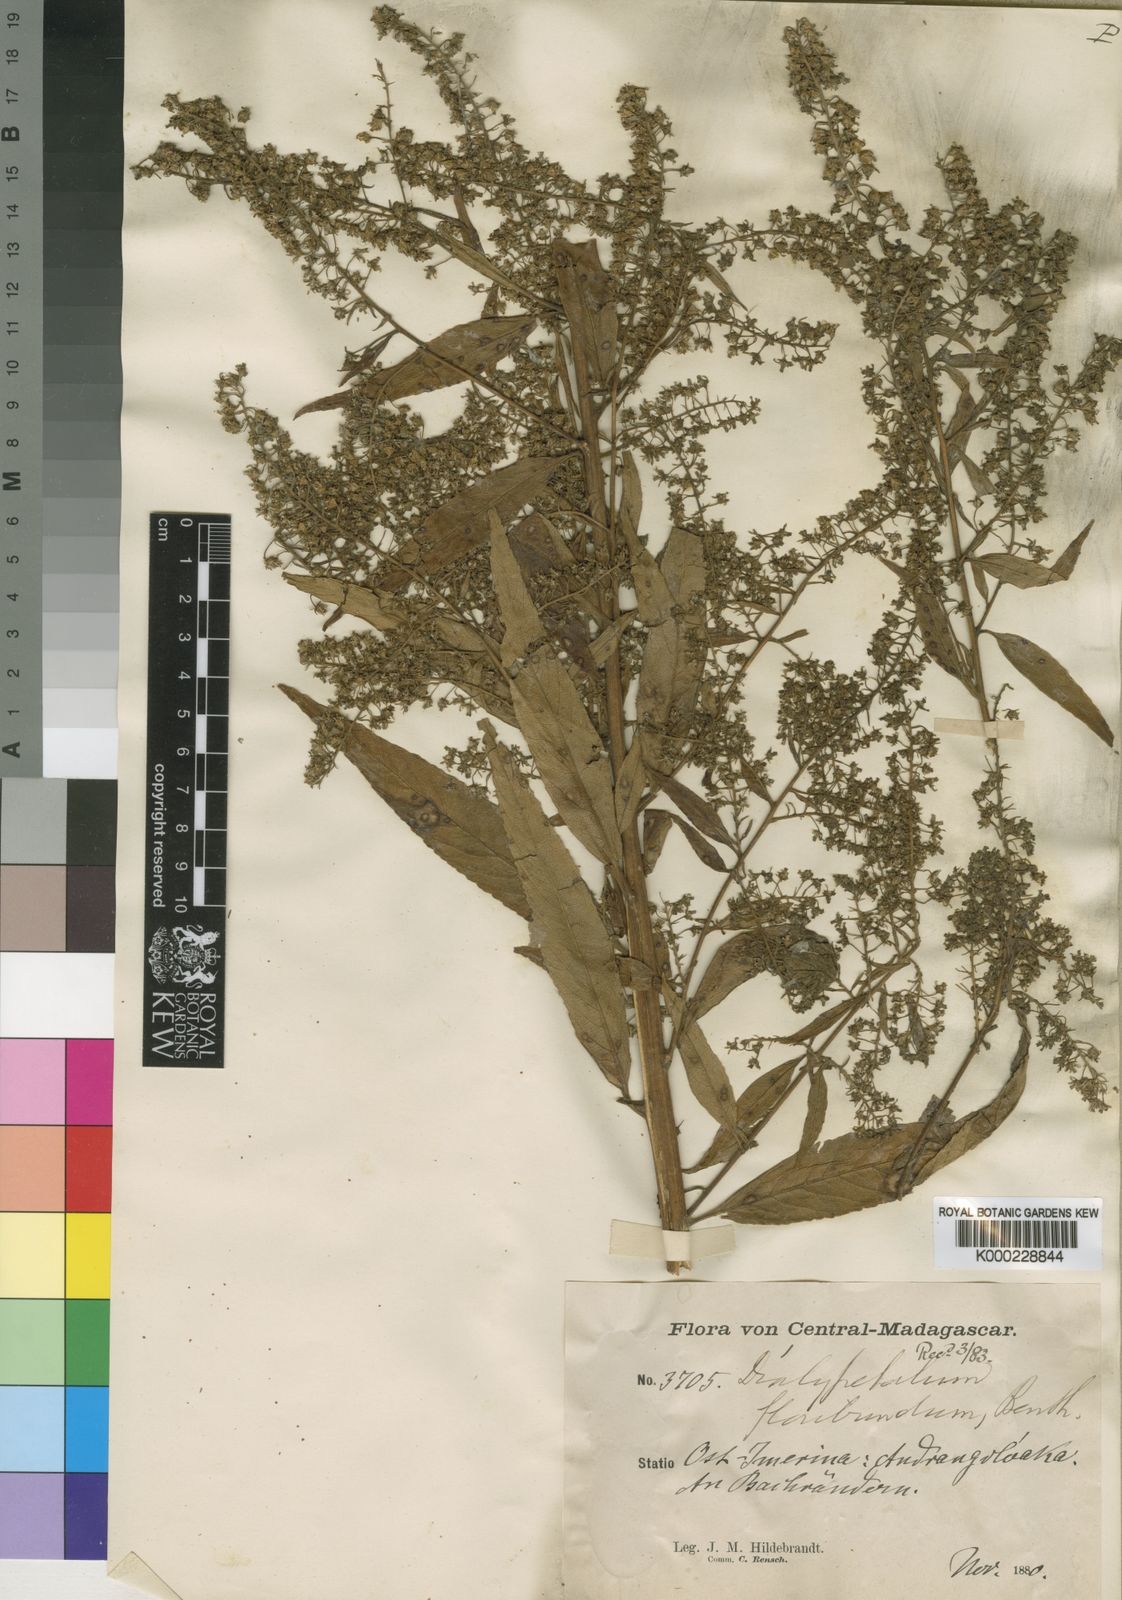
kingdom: Plantae
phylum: Tracheophyta
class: Magnoliopsida
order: Asterales
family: Campanulaceae
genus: Dialypetalum
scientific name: Dialypetalum floribundum
